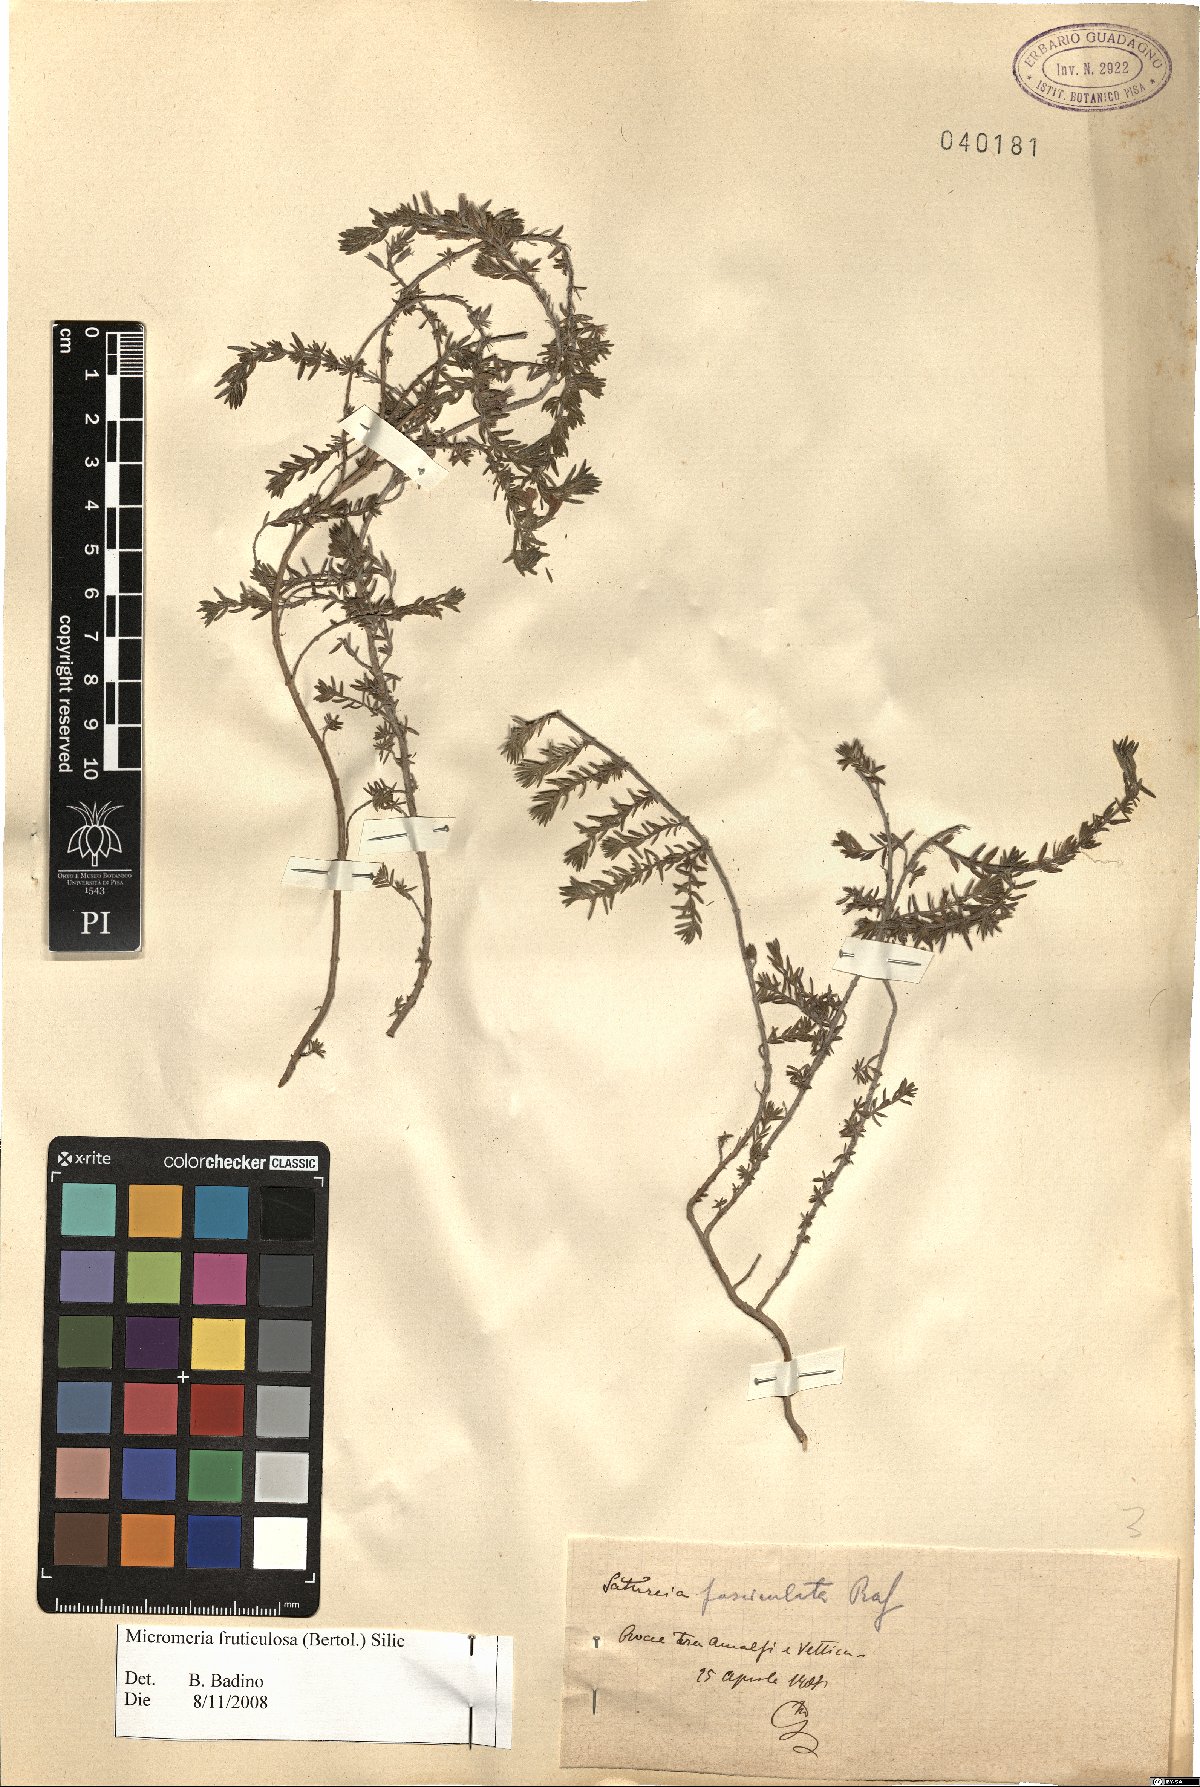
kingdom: Plantae
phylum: Tracheophyta
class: Magnoliopsida
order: Lamiales
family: Lamiaceae
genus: Micromeria
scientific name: Micromeria graeca
